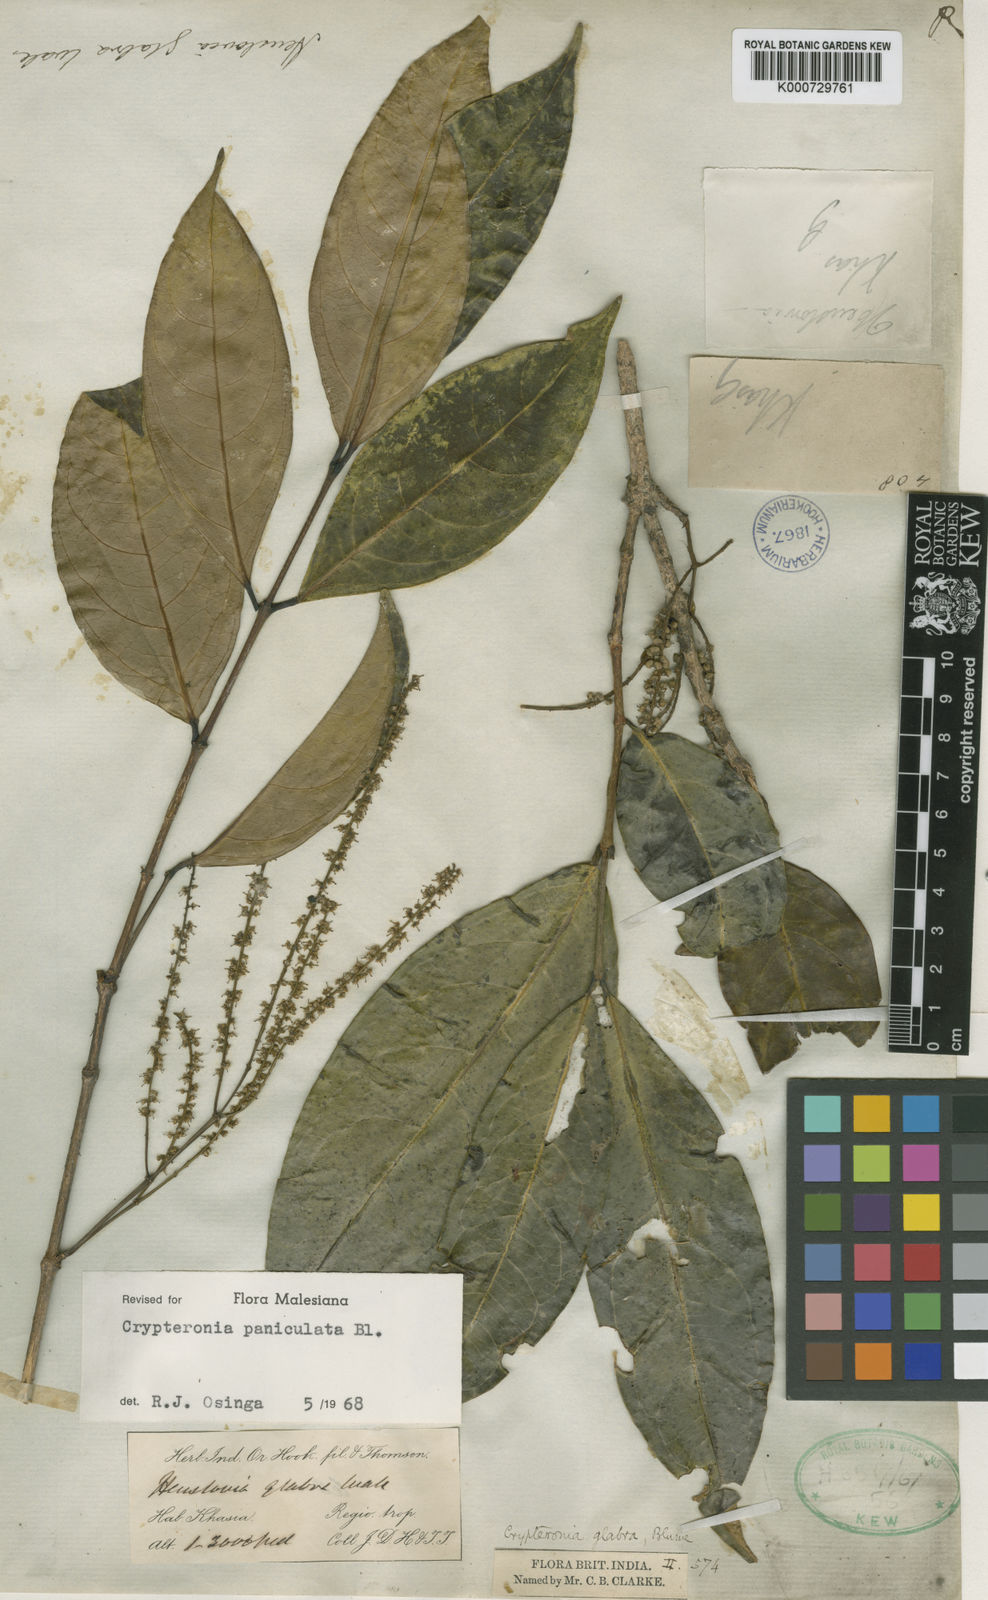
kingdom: Plantae
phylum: Tracheophyta
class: Magnoliopsida
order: Myrtales
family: Crypteroniaceae
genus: Crypteronia
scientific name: Crypteronia paniculata
